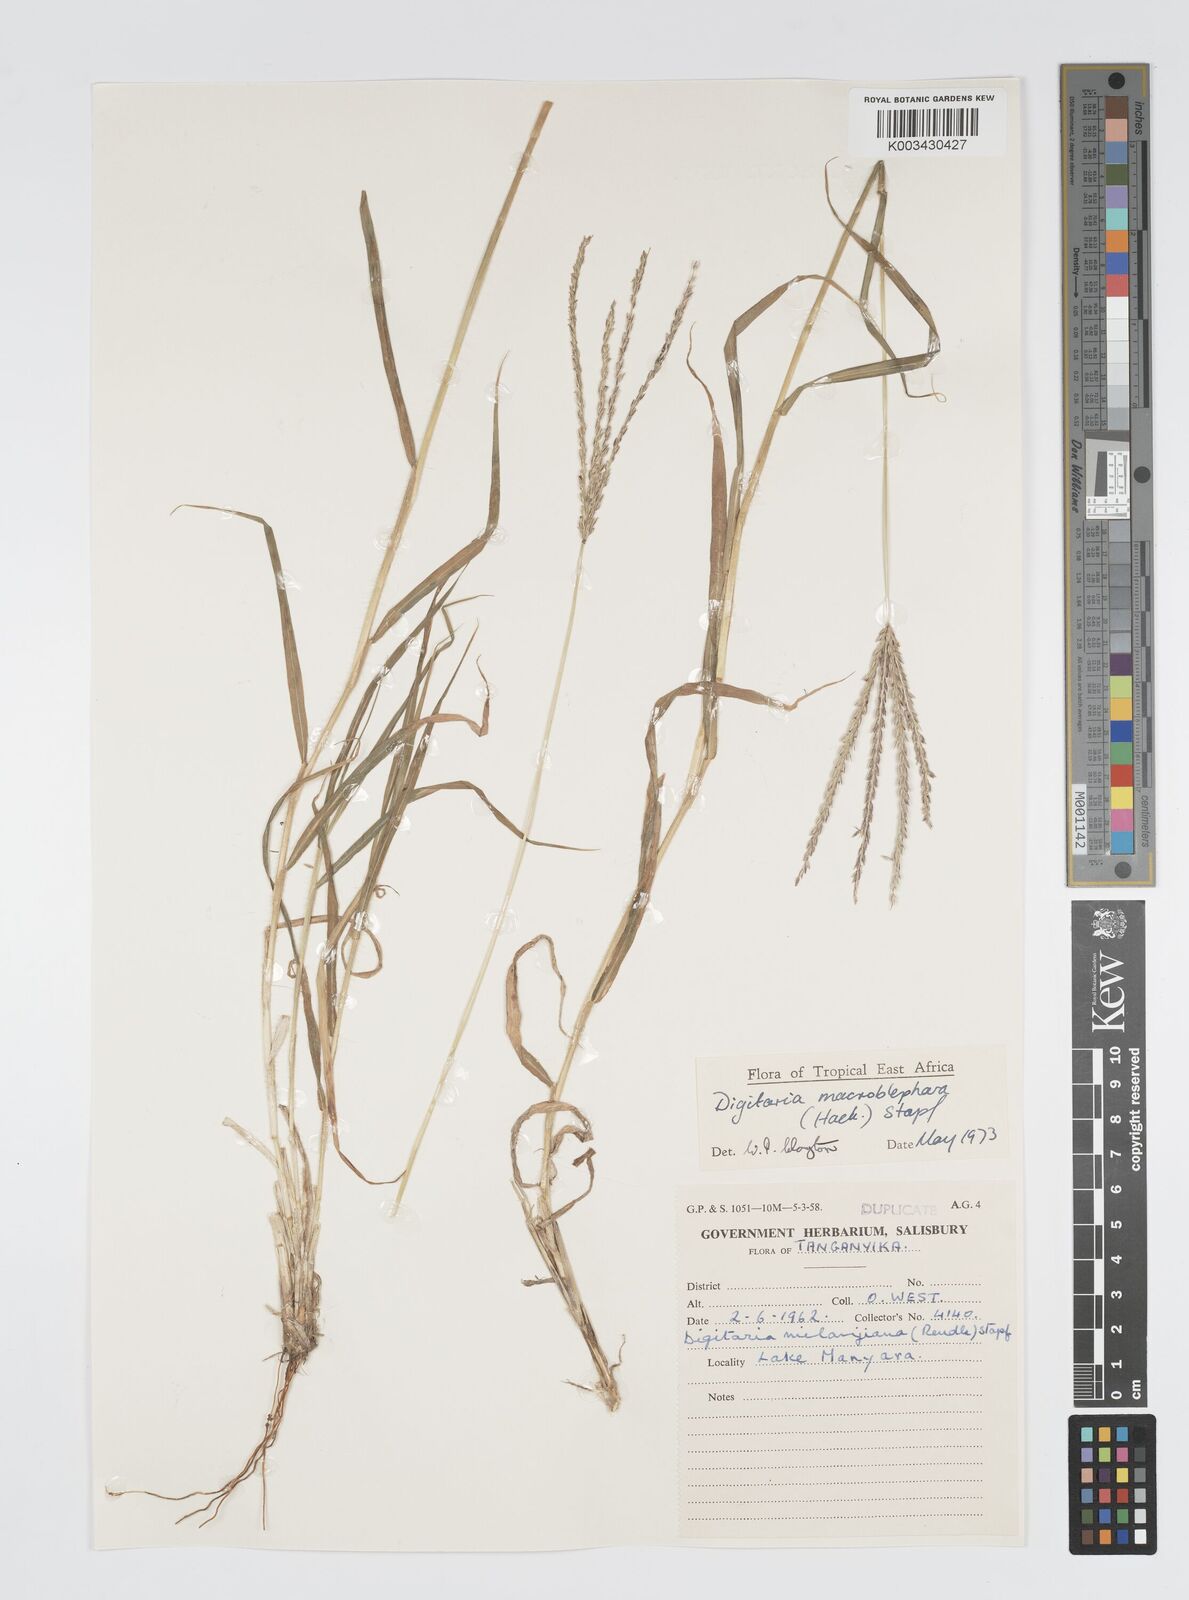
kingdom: Plantae
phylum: Tracheophyta
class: Liliopsida
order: Poales
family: Poaceae
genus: Digitaria
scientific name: Digitaria macroblephara
